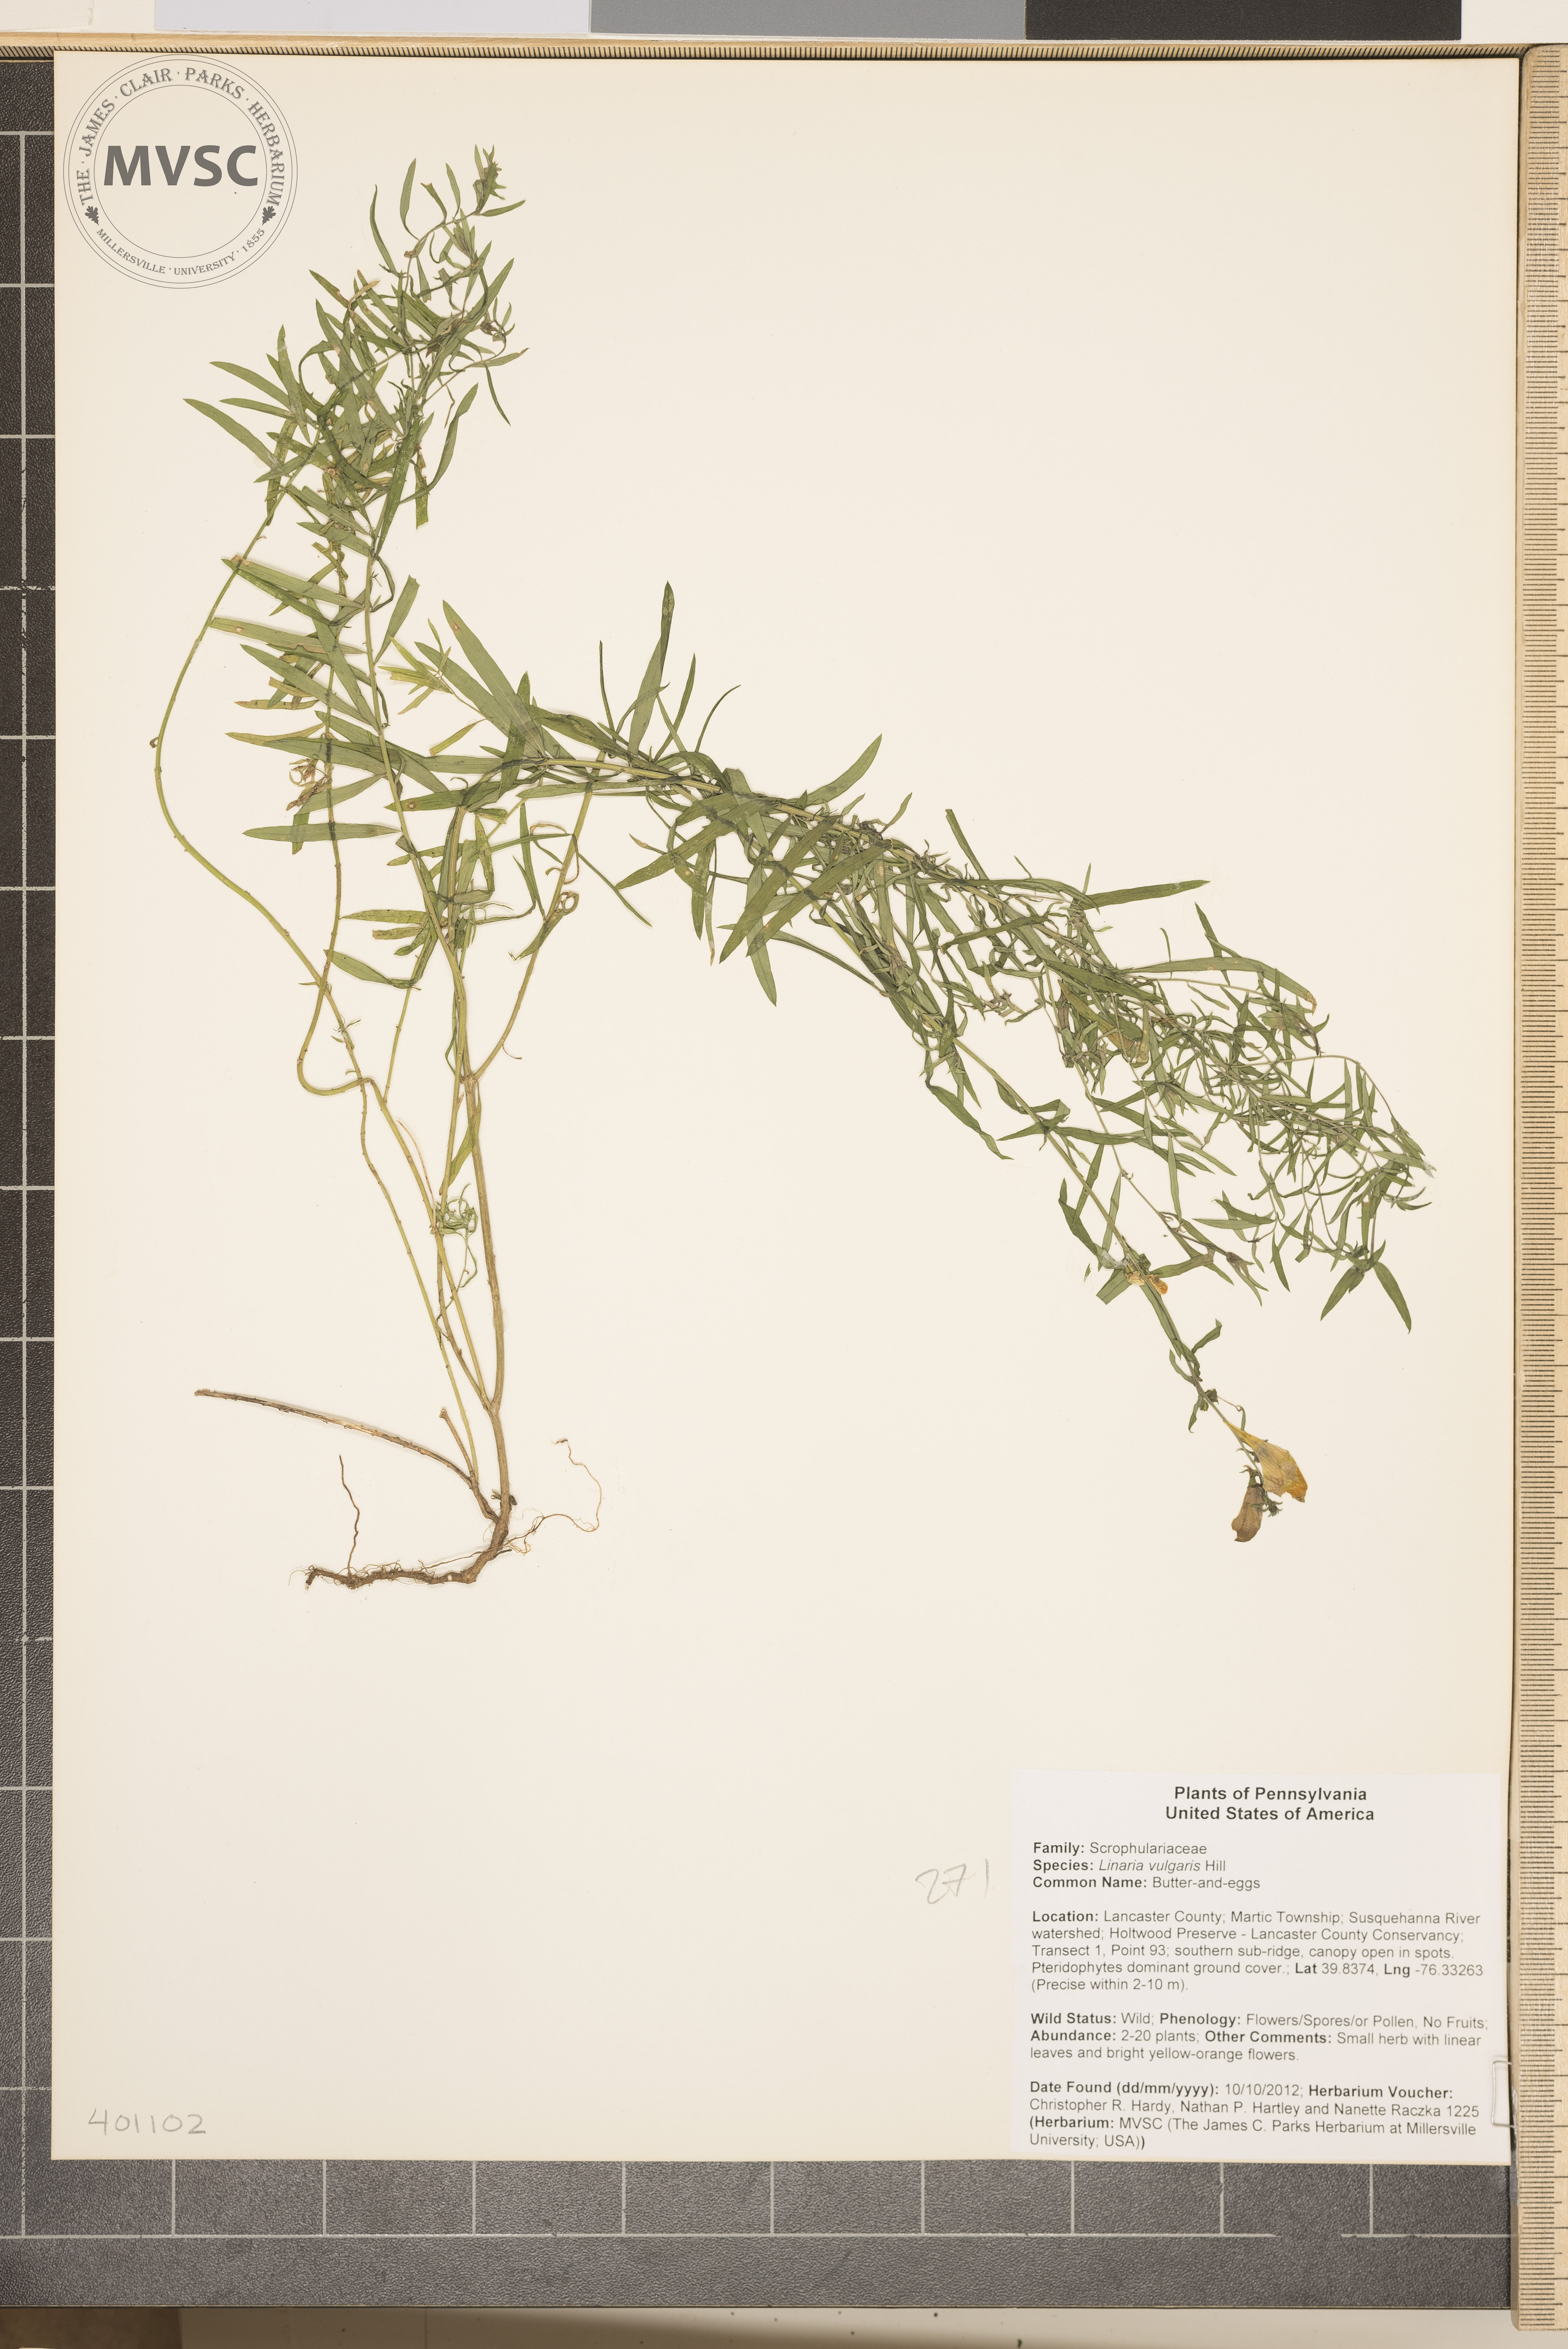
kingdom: Plantae
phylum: Tracheophyta
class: Magnoliopsida
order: Lamiales
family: Plantaginaceae
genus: Linaria
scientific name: Linaria vulgaris
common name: Butter-and-eggs
